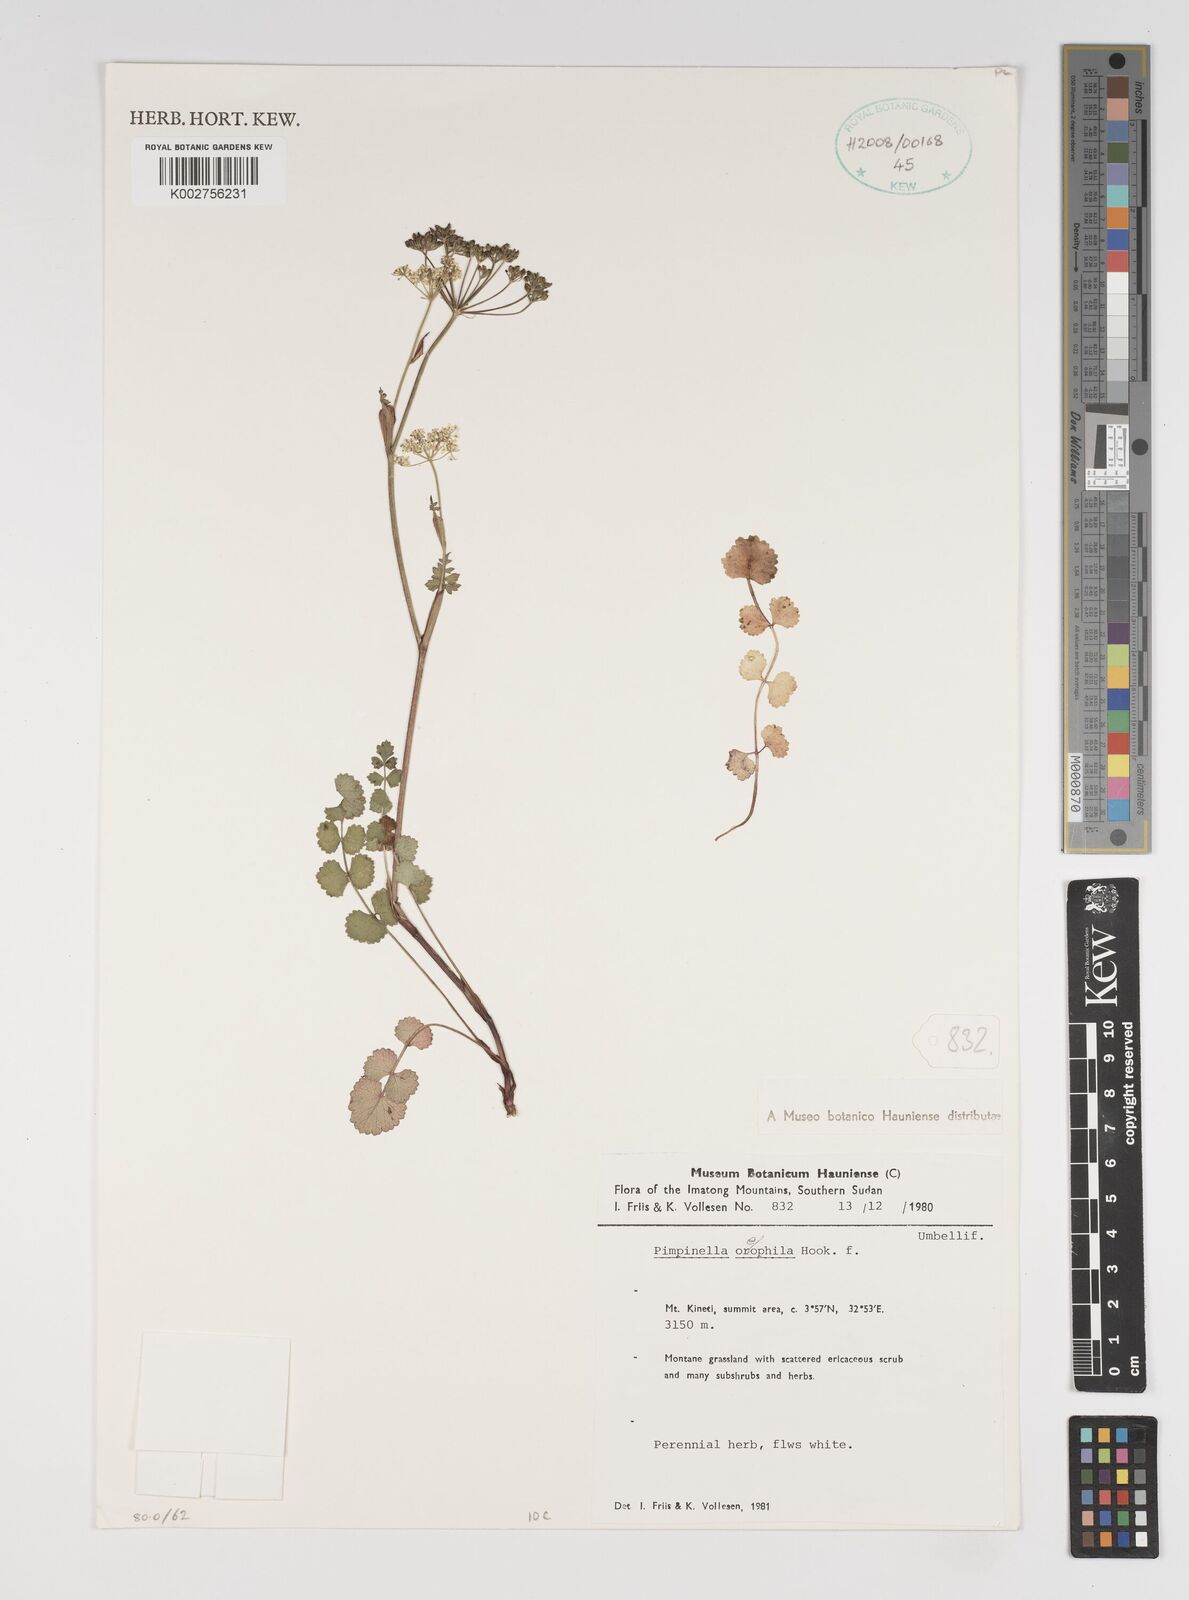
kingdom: Plantae
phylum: Tracheophyta
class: Magnoliopsida
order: Apiales
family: Apiaceae
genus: Pimpinella
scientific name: Pimpinella oreophila
